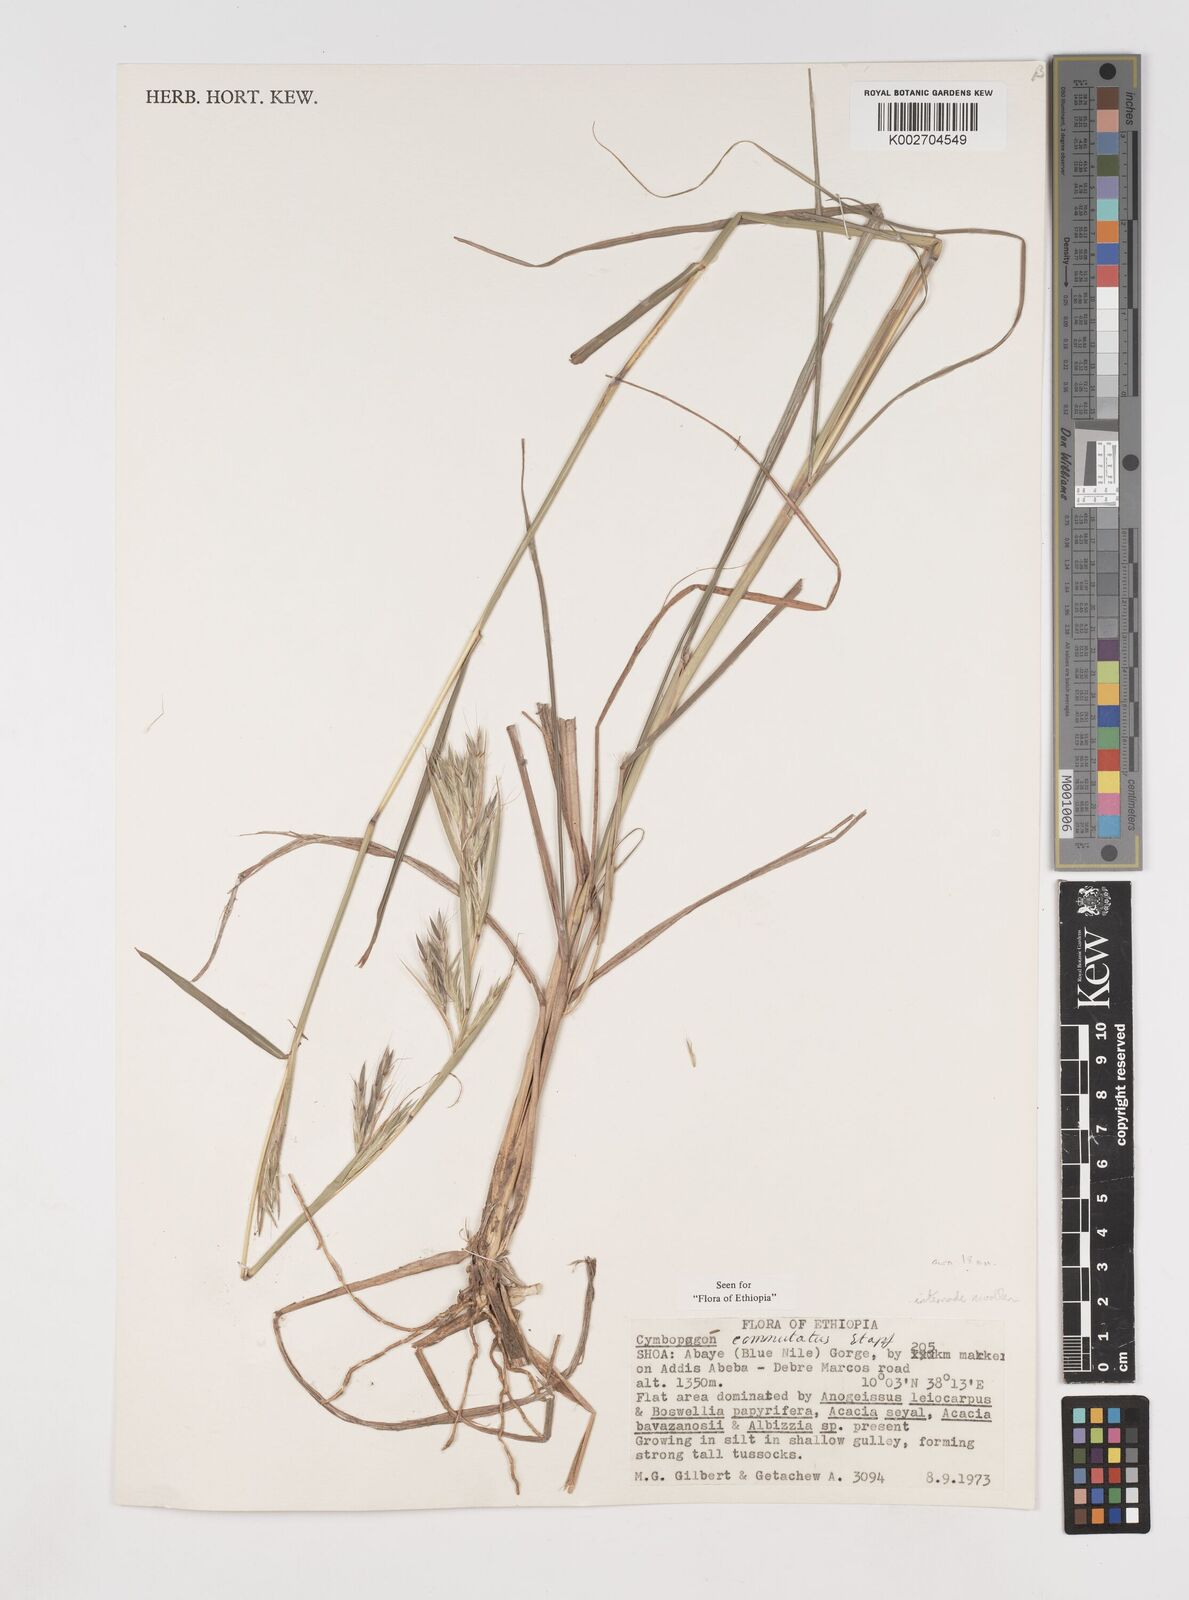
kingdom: Plantae
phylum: Tracheophyta
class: Liliopsida
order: Poales
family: Poaceae
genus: Cymbopogon
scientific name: Cymbopogon commutatus
